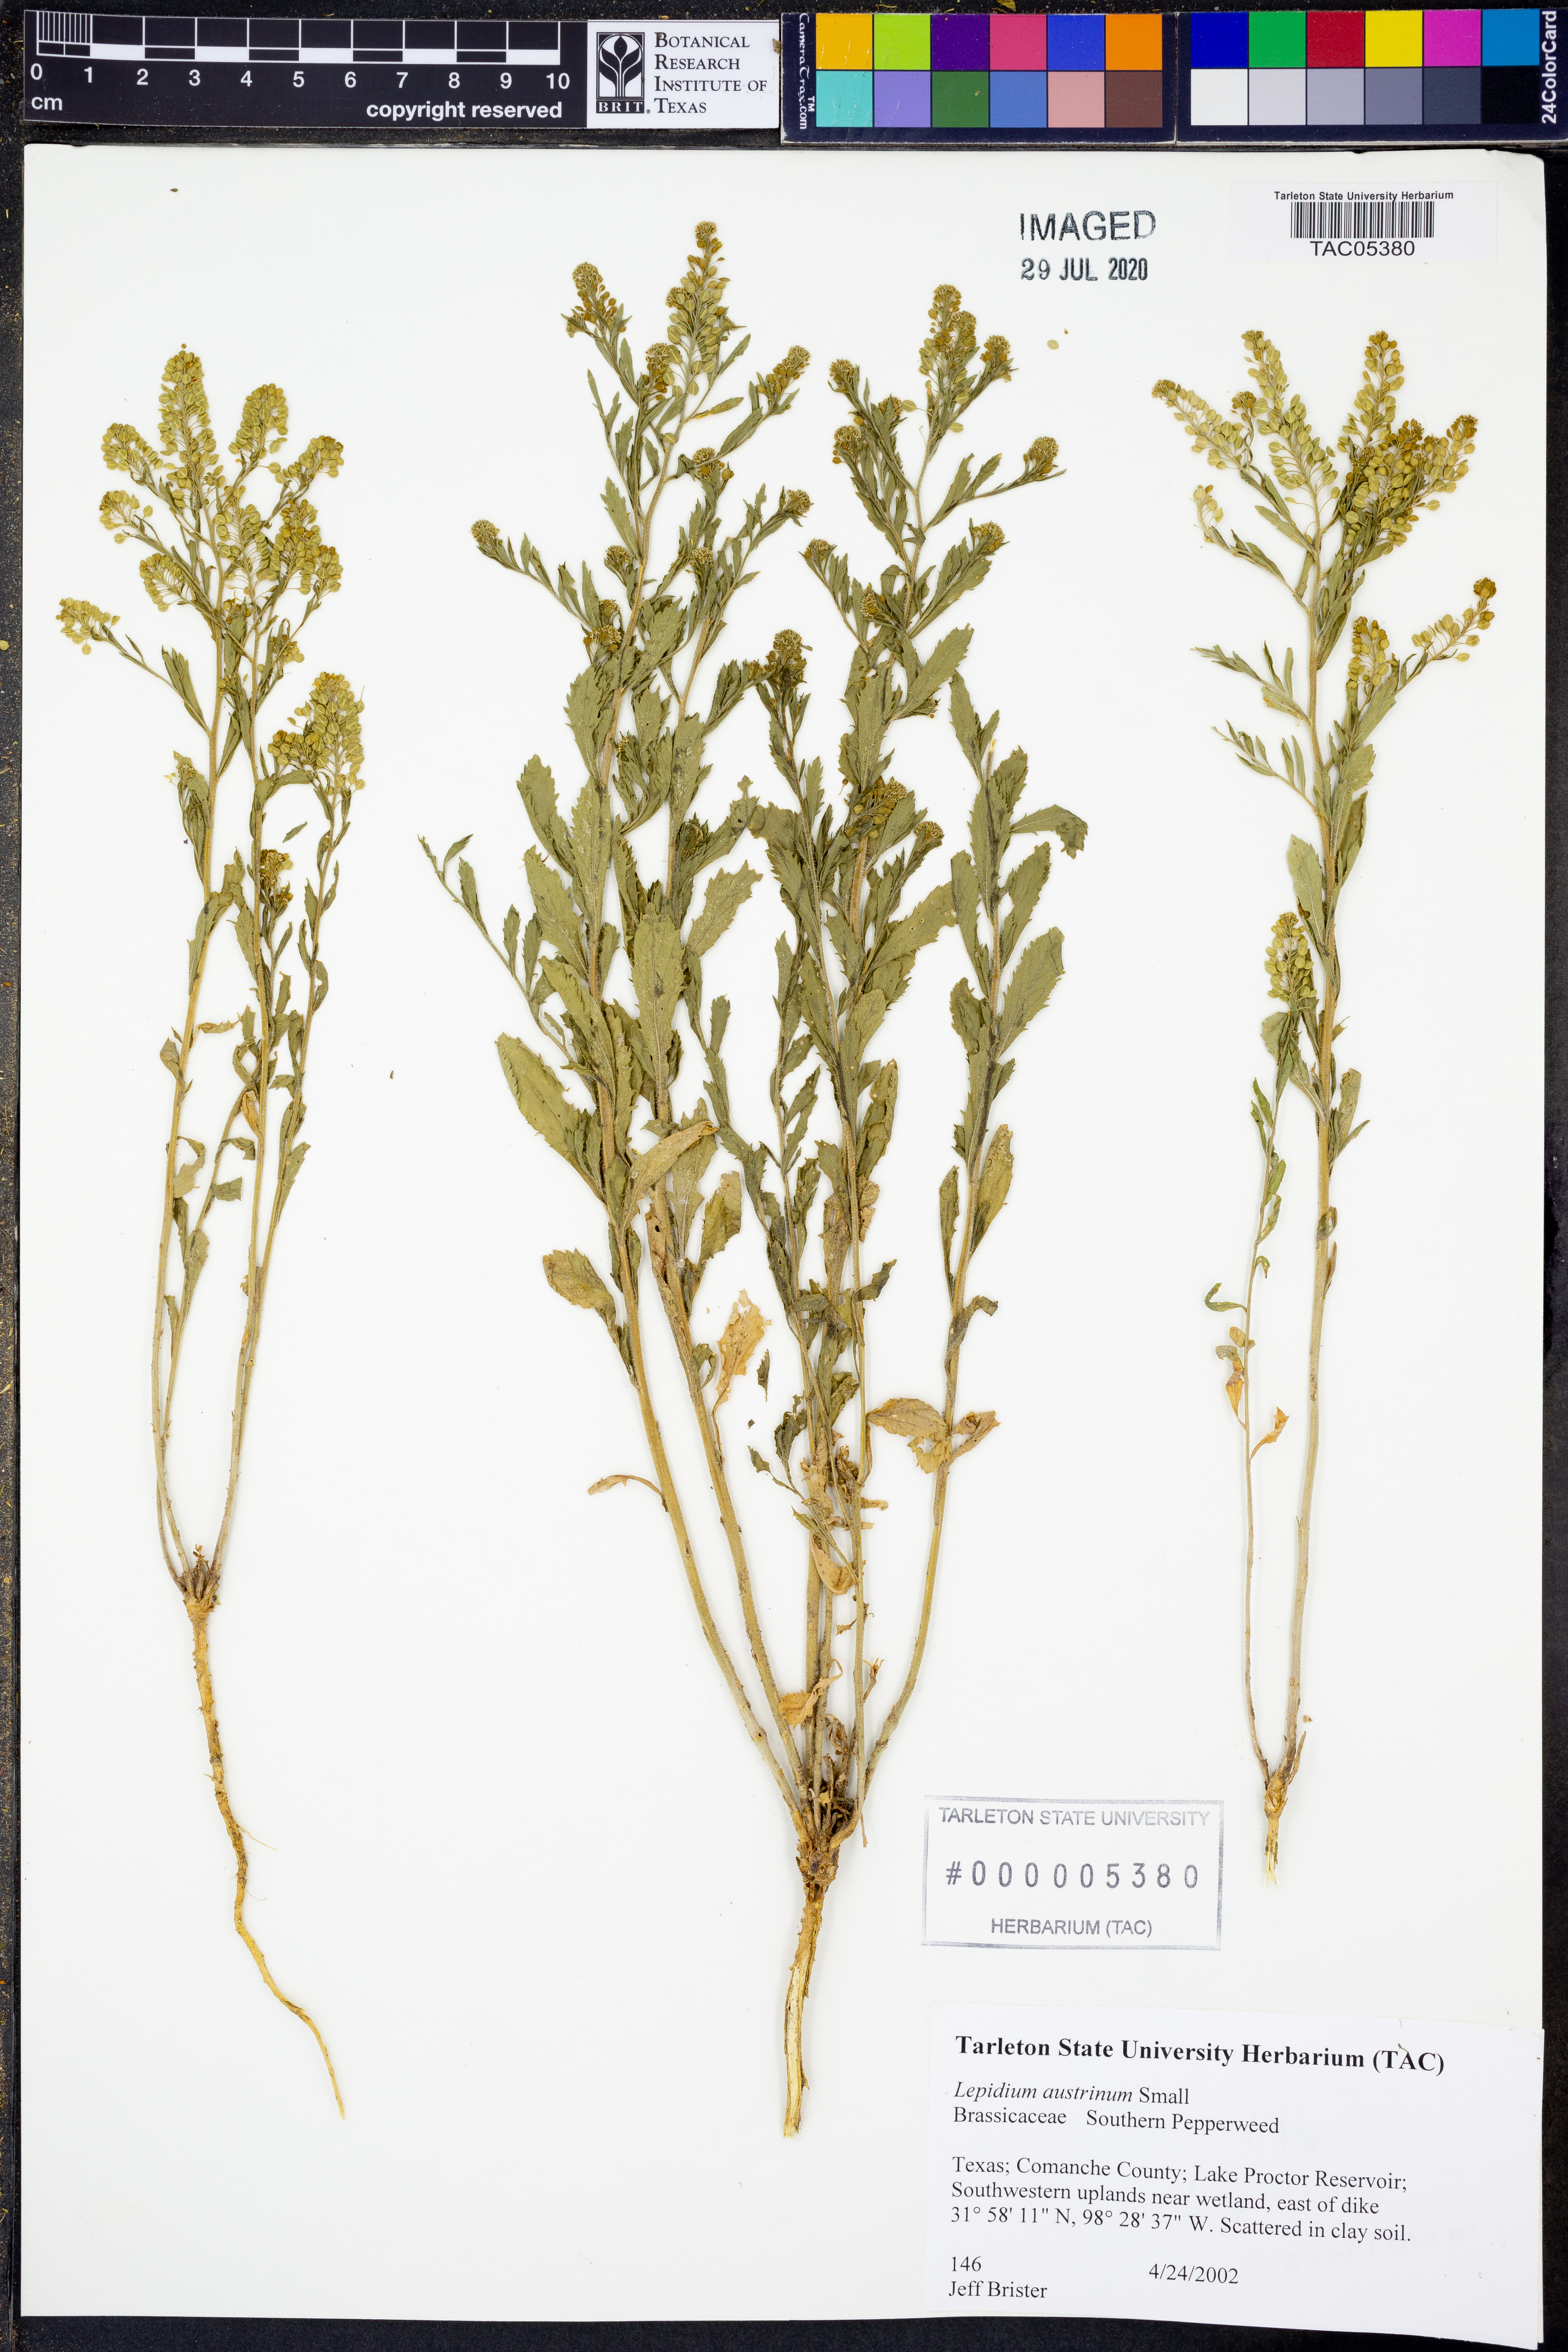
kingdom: Plantae
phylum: Tracheophyta
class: Magnoliopsida
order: Brassicales
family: Brassicaceae
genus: Lepidium
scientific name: Lepidium austrinum
